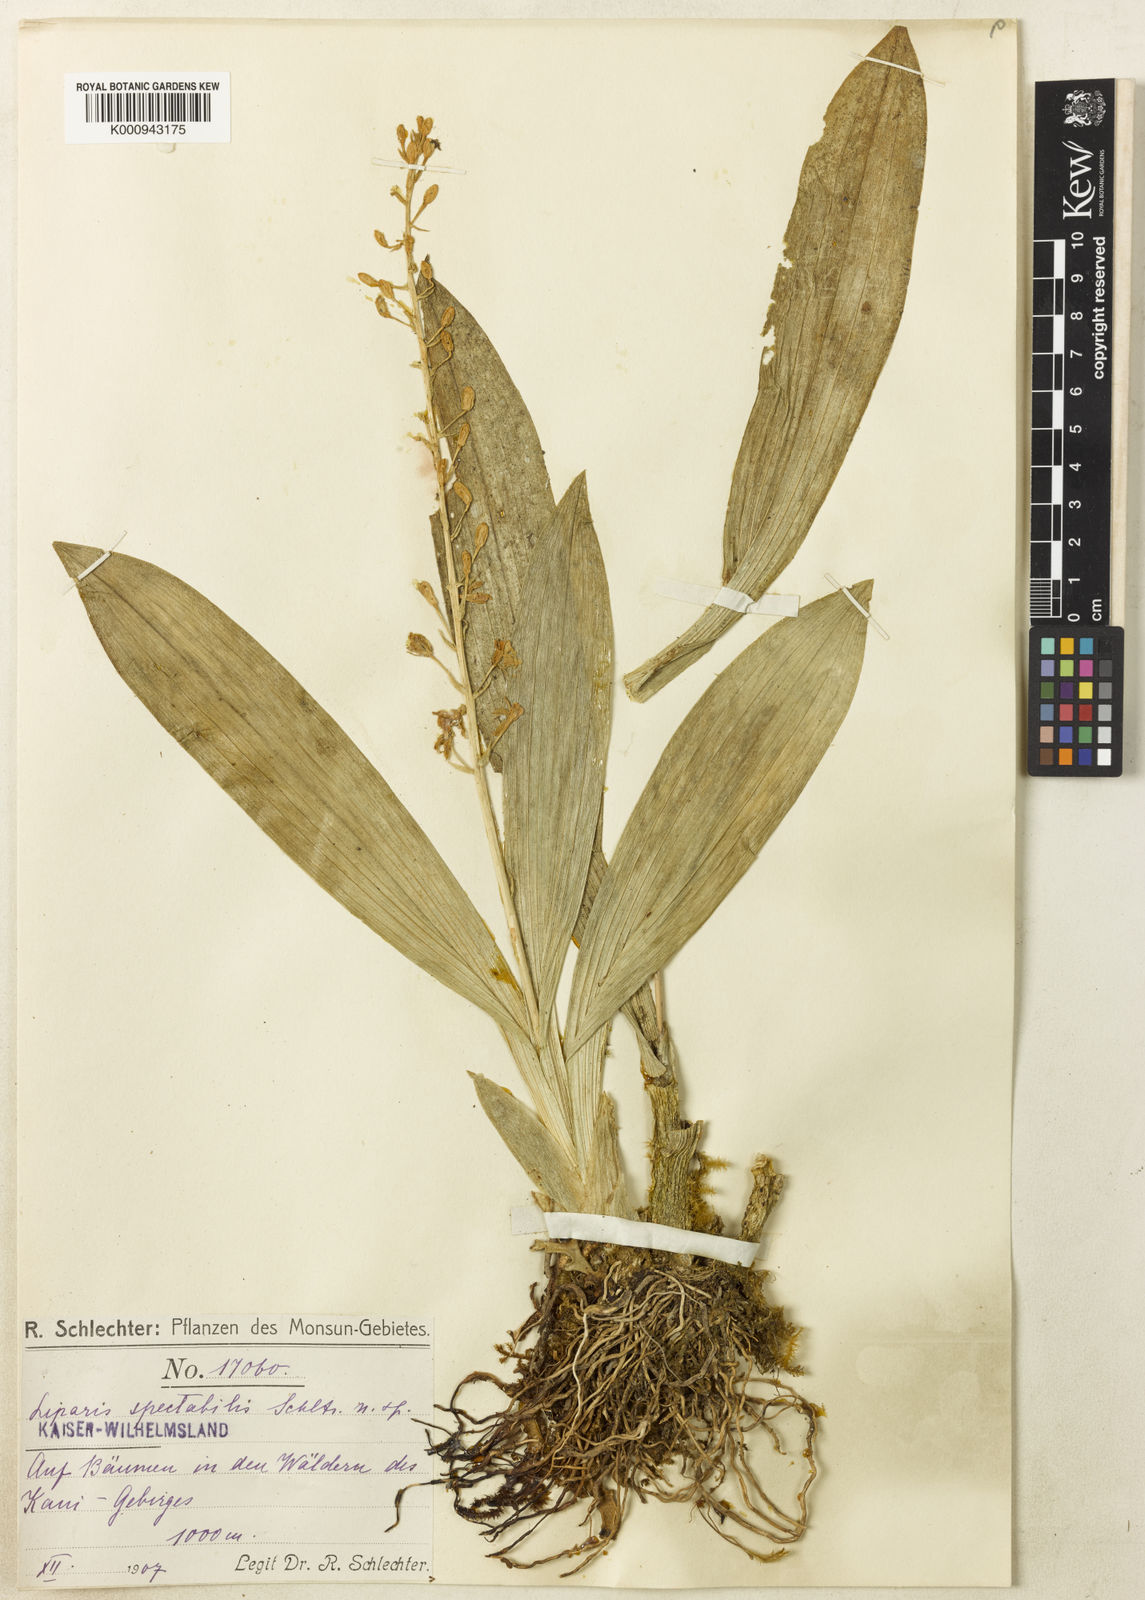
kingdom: Plantae
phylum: Tracheophyta
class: Liliopsida
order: Asparagales
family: Orchidaceae
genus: Liparis
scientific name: Liparis spectabilis
